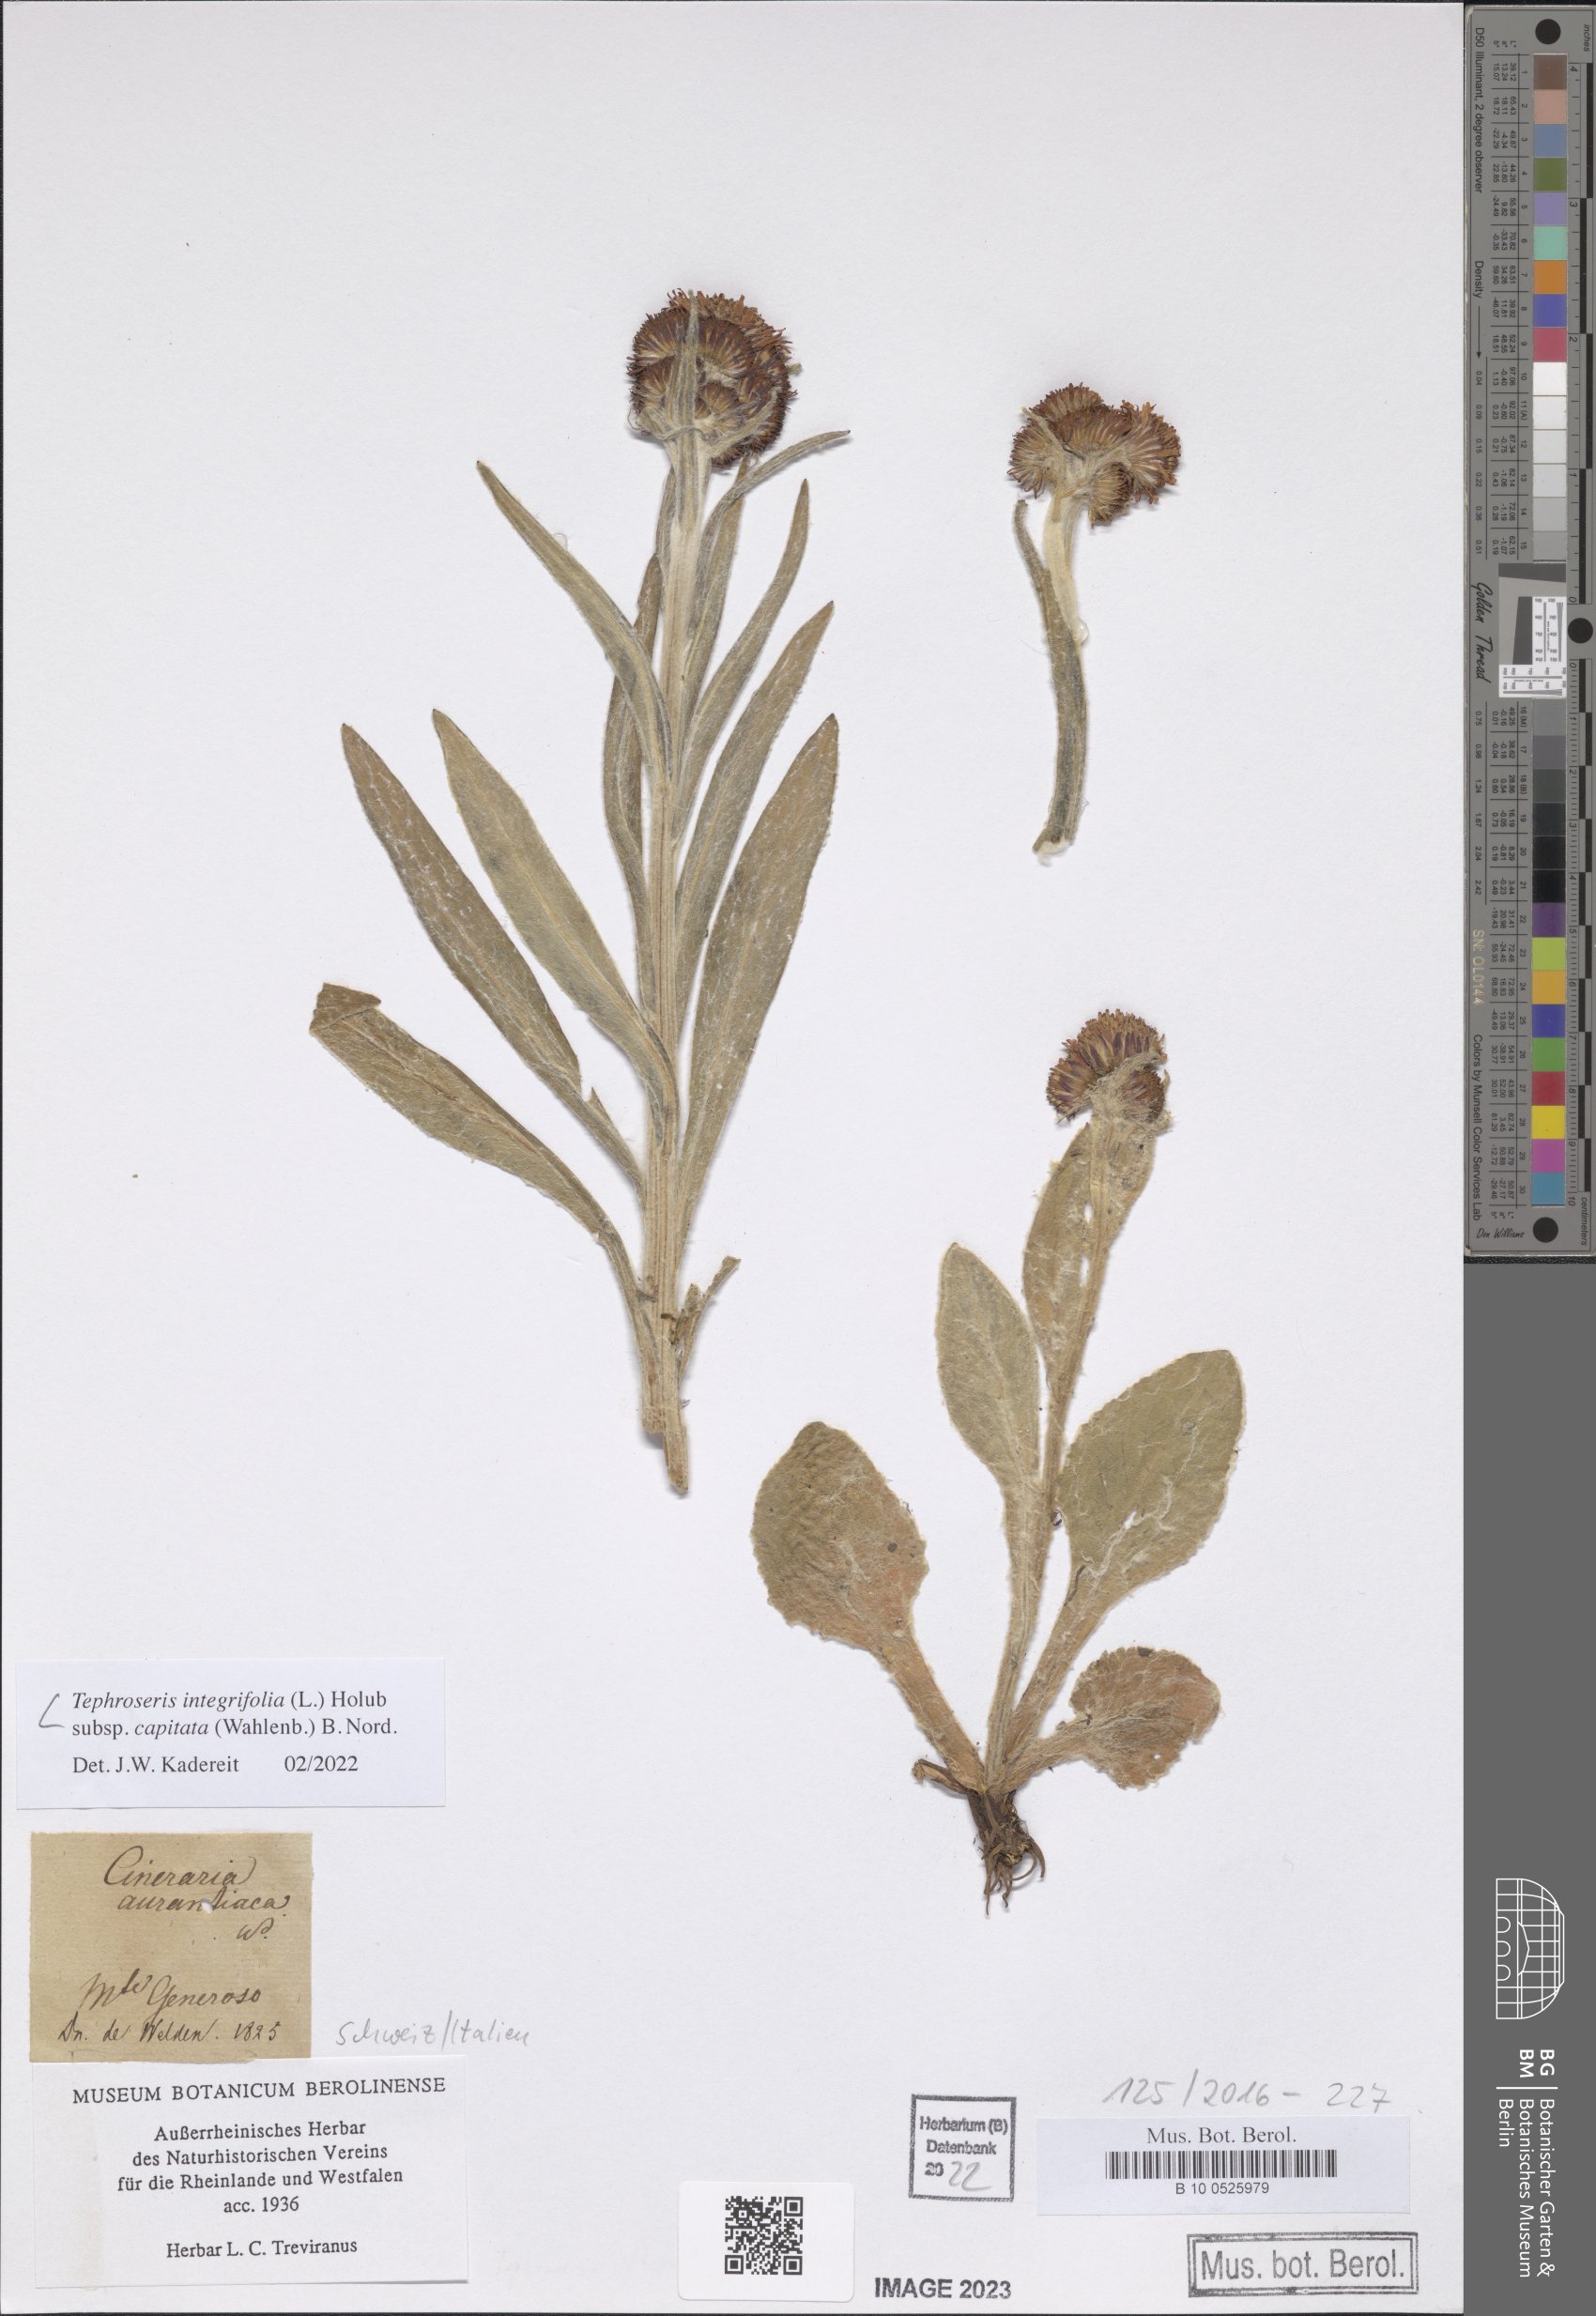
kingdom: Plantae
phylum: Tracheophyta
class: Magnoliopsida
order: Asterales
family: Asteraceae
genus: Tephroseris
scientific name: Tephroseris integrifolia
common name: Field fleawort
